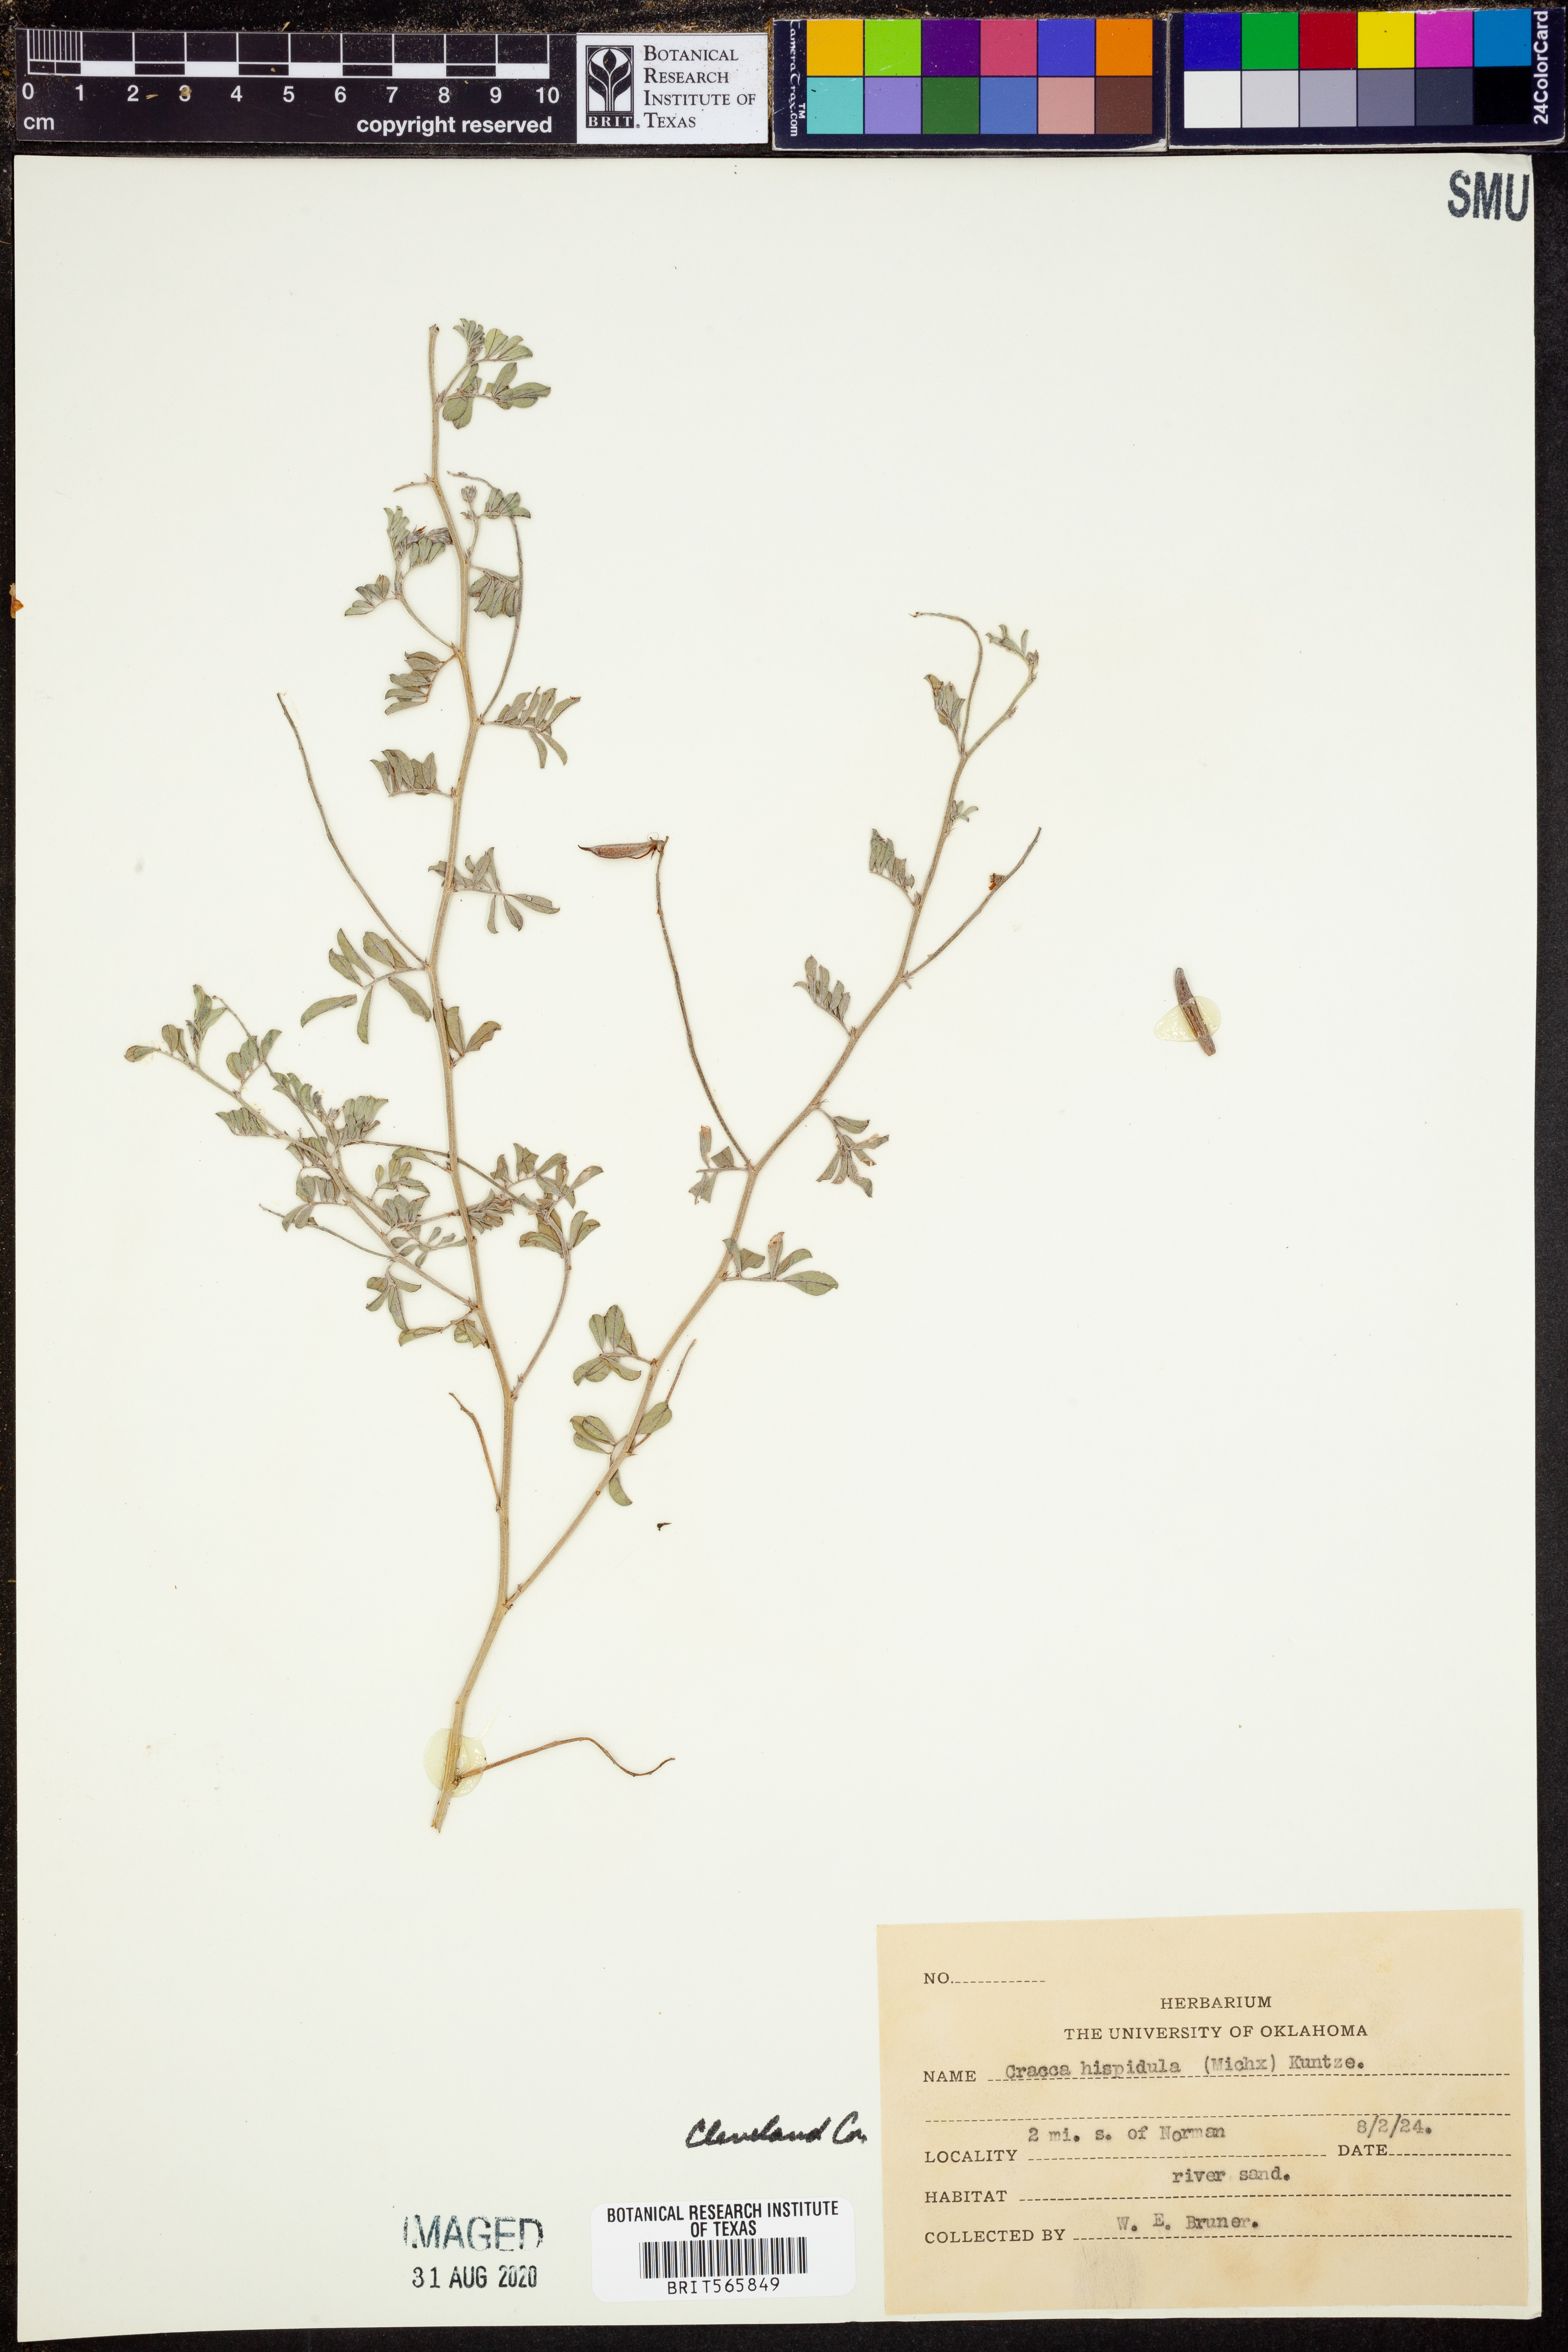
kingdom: Plantae
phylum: Tracheophyta
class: Magnoliopsida
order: Fabales
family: Fabaceae
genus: Tephrosia
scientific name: Tephrosia hispidula
